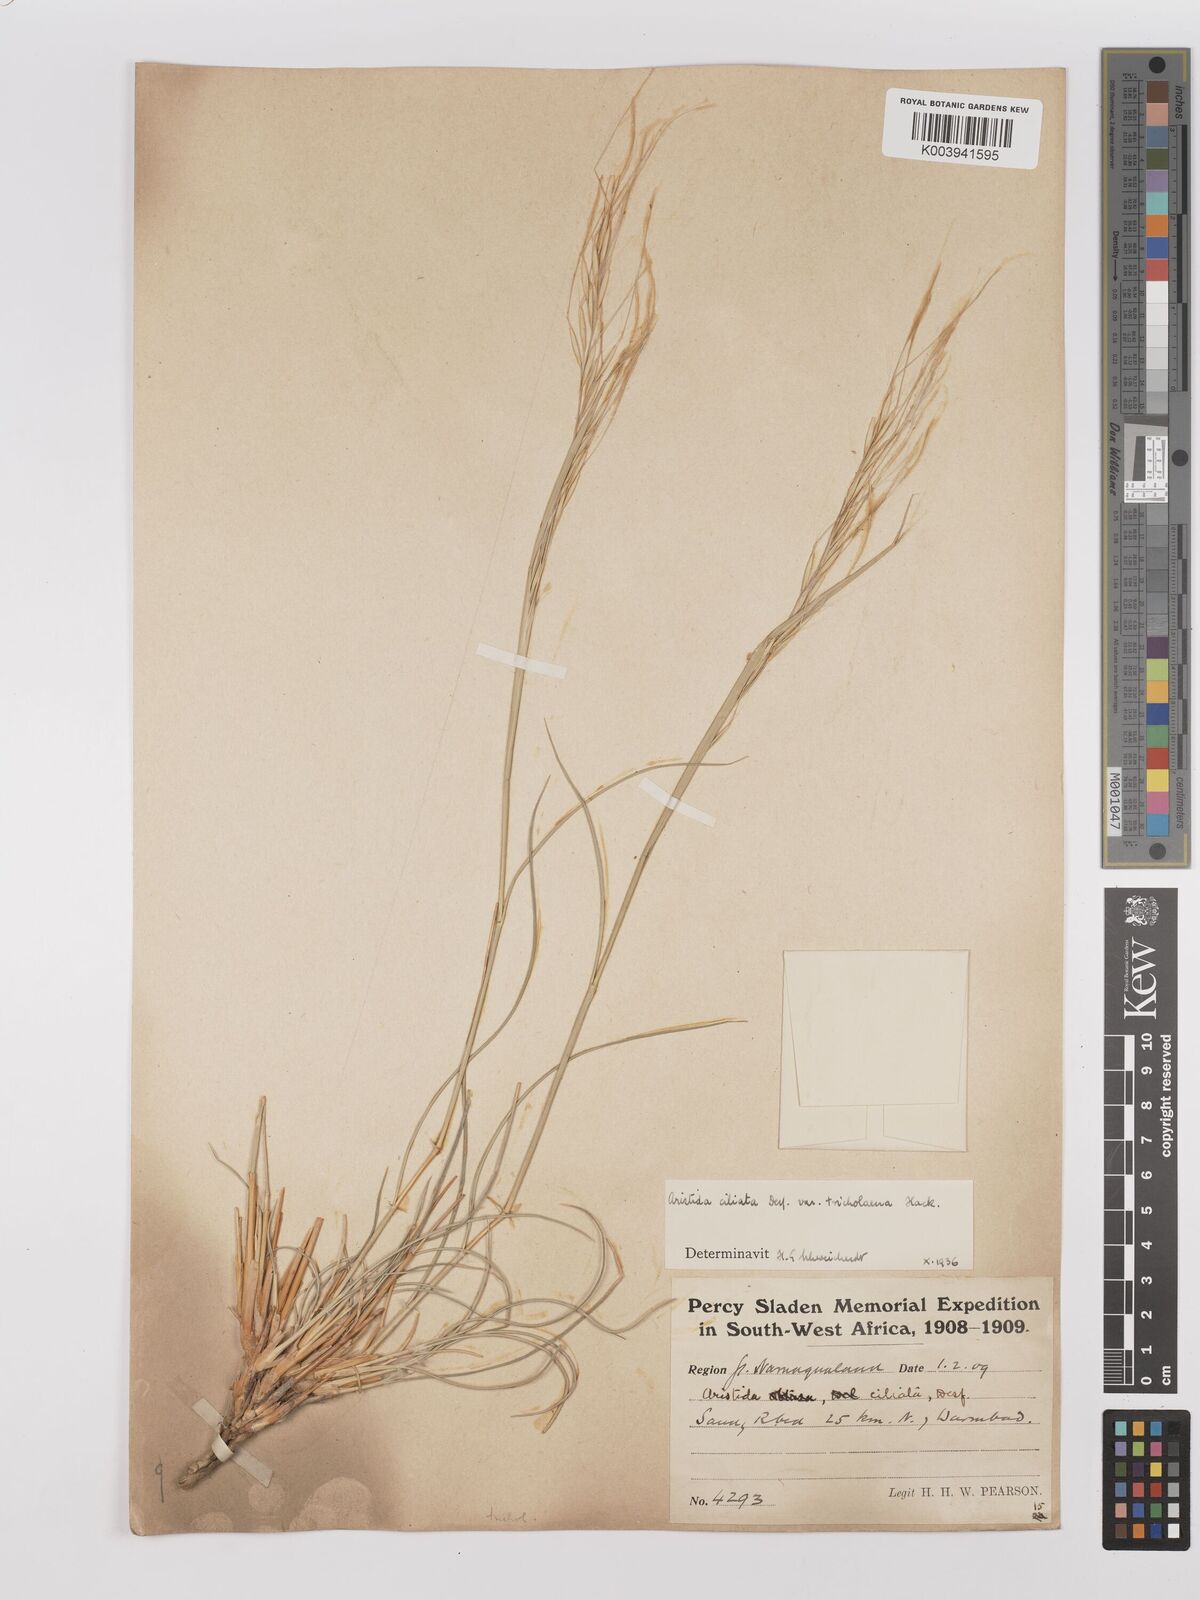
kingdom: Plantae
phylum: Tracheophyta
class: Liliopsida
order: Poales
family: Poaceae
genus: Stipagrostis
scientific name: Stipagrostis ciliata
